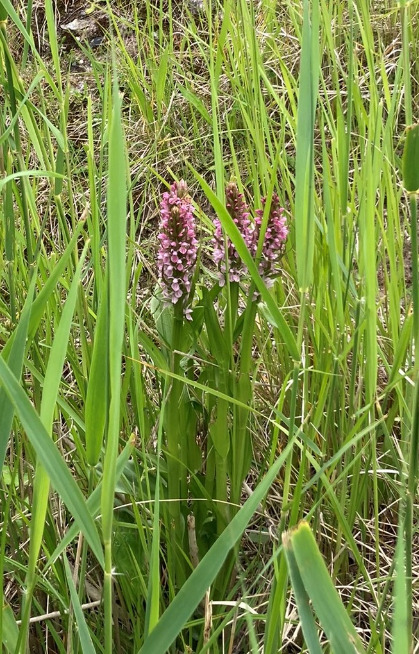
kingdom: Plantae
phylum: Tracheophyta
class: Liliopsida
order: Asparagales
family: Orchidaceae
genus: Dactylorhiza
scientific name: Dactylorhiza incarnata
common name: Kødfarvet gøgeurt
